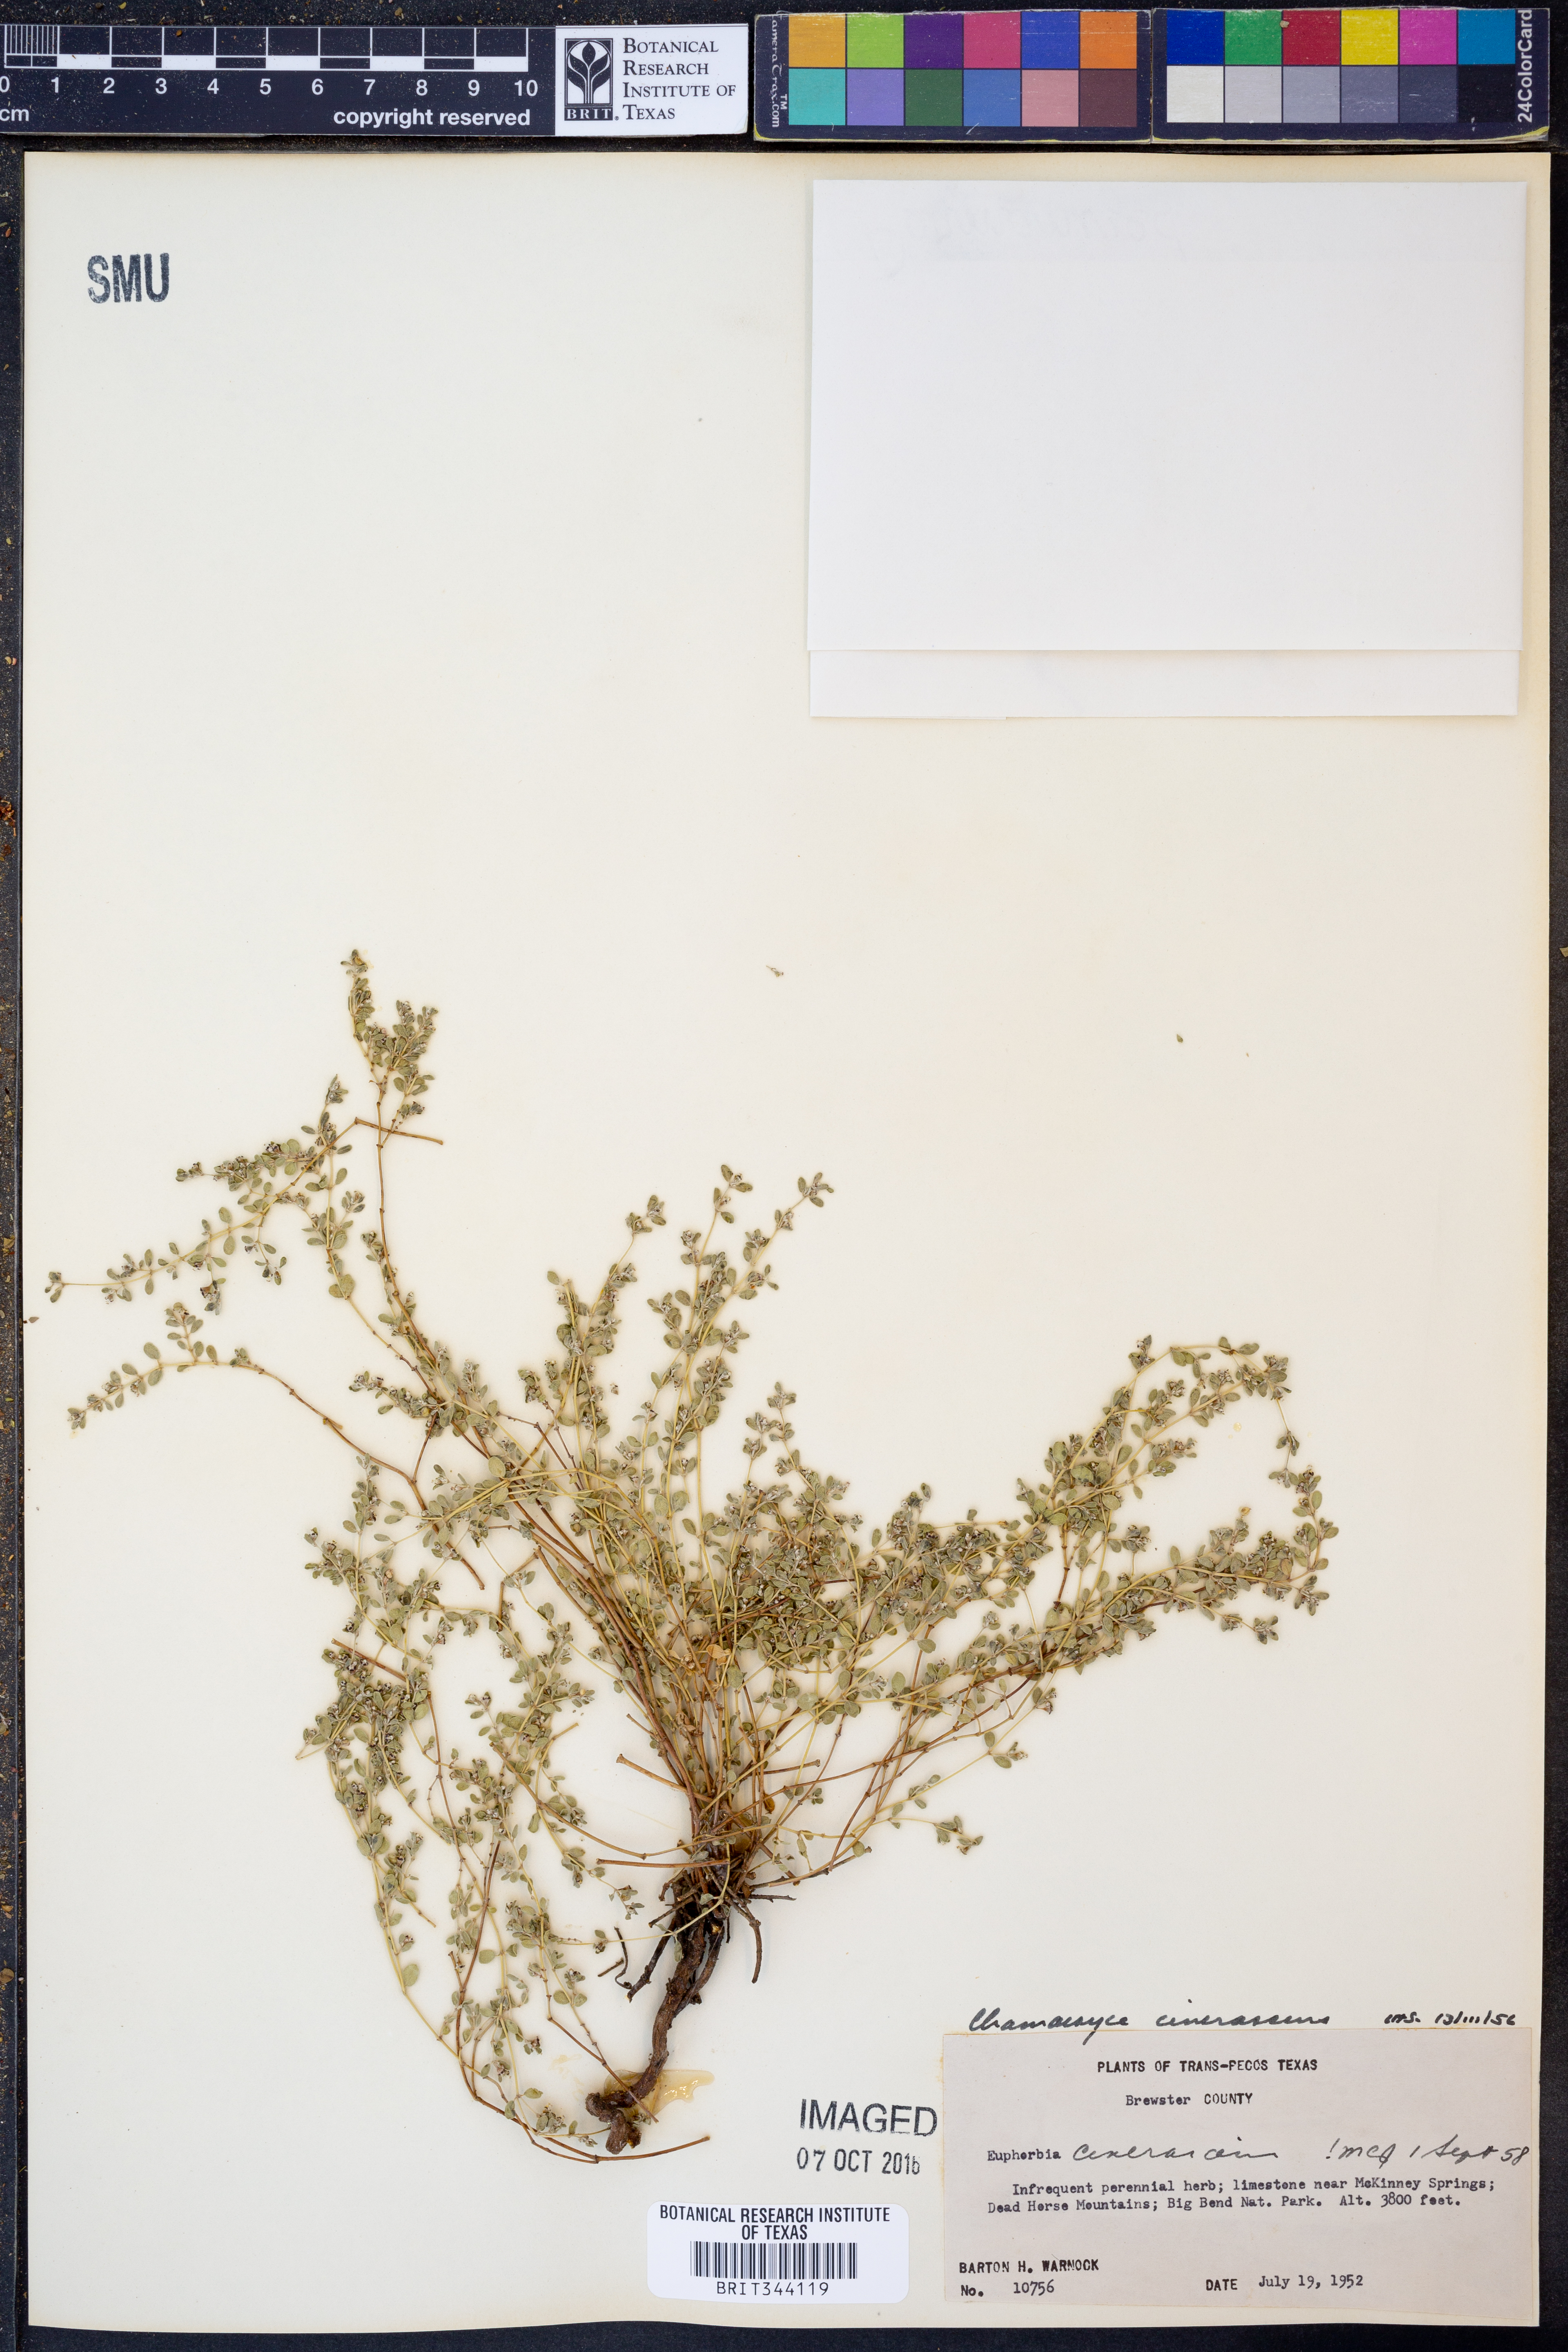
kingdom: Plantae
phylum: Tracheophyta
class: Magnoliopsida
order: Malpighiales
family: Euphorbiaceae
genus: Euphorbia
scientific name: Euphorbia cinerascens
